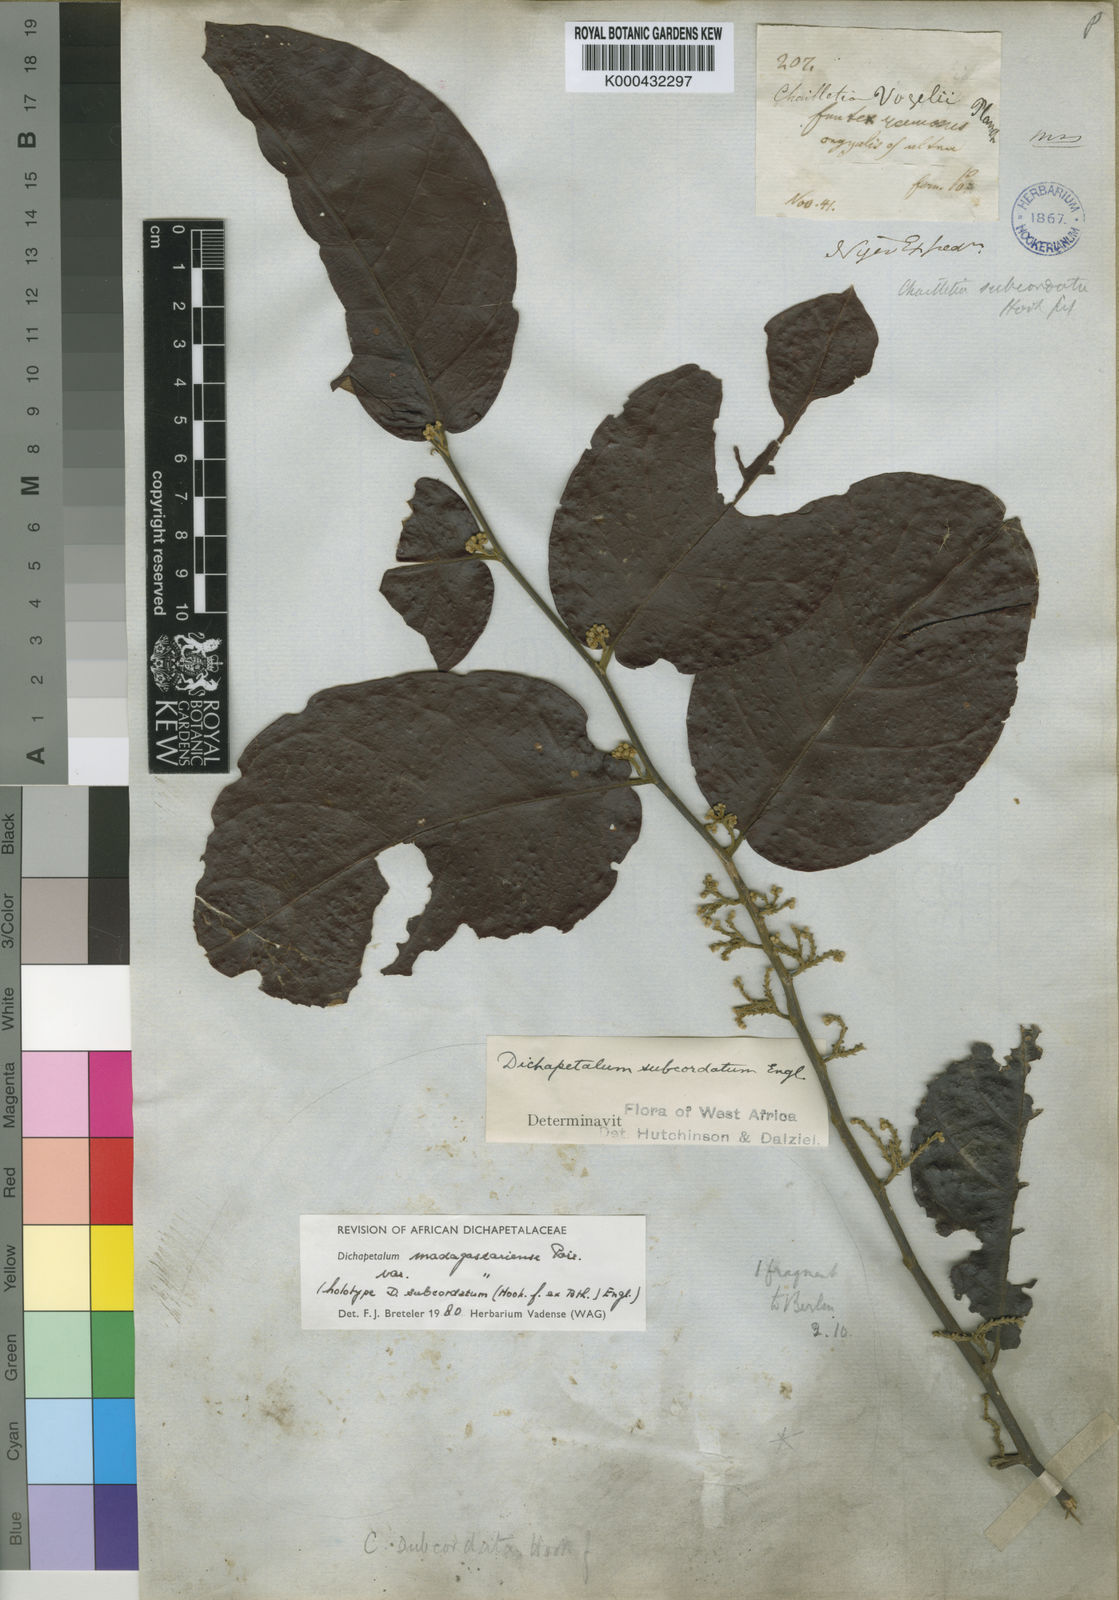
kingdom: Plantae
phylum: Tracheophyta
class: Magnoliopsida
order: Malpighiales
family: Dichapetalaceae
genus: Dichapetalum
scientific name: Dichapetalum madagascariense
